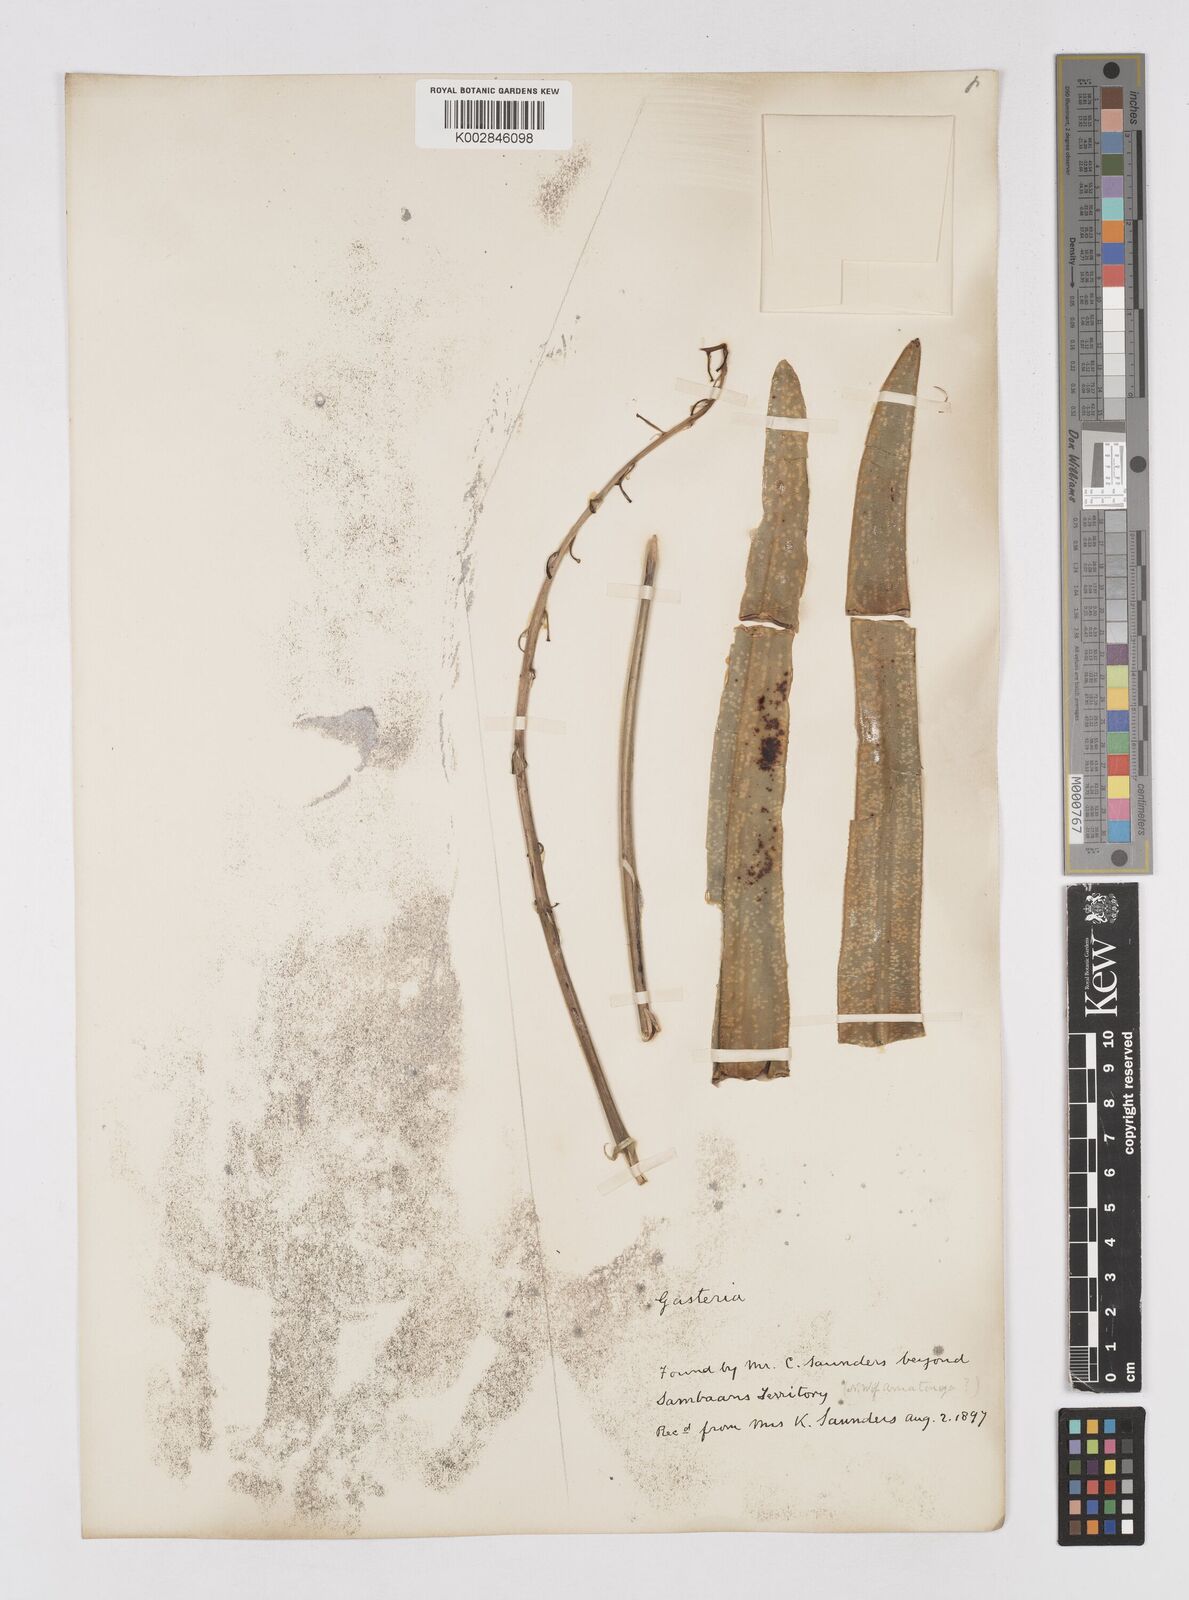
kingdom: Plantae
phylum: Tracheophyta
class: Liliopsida
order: Asparagales
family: Asphodelaceae
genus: Gasteria
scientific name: Gasteria
